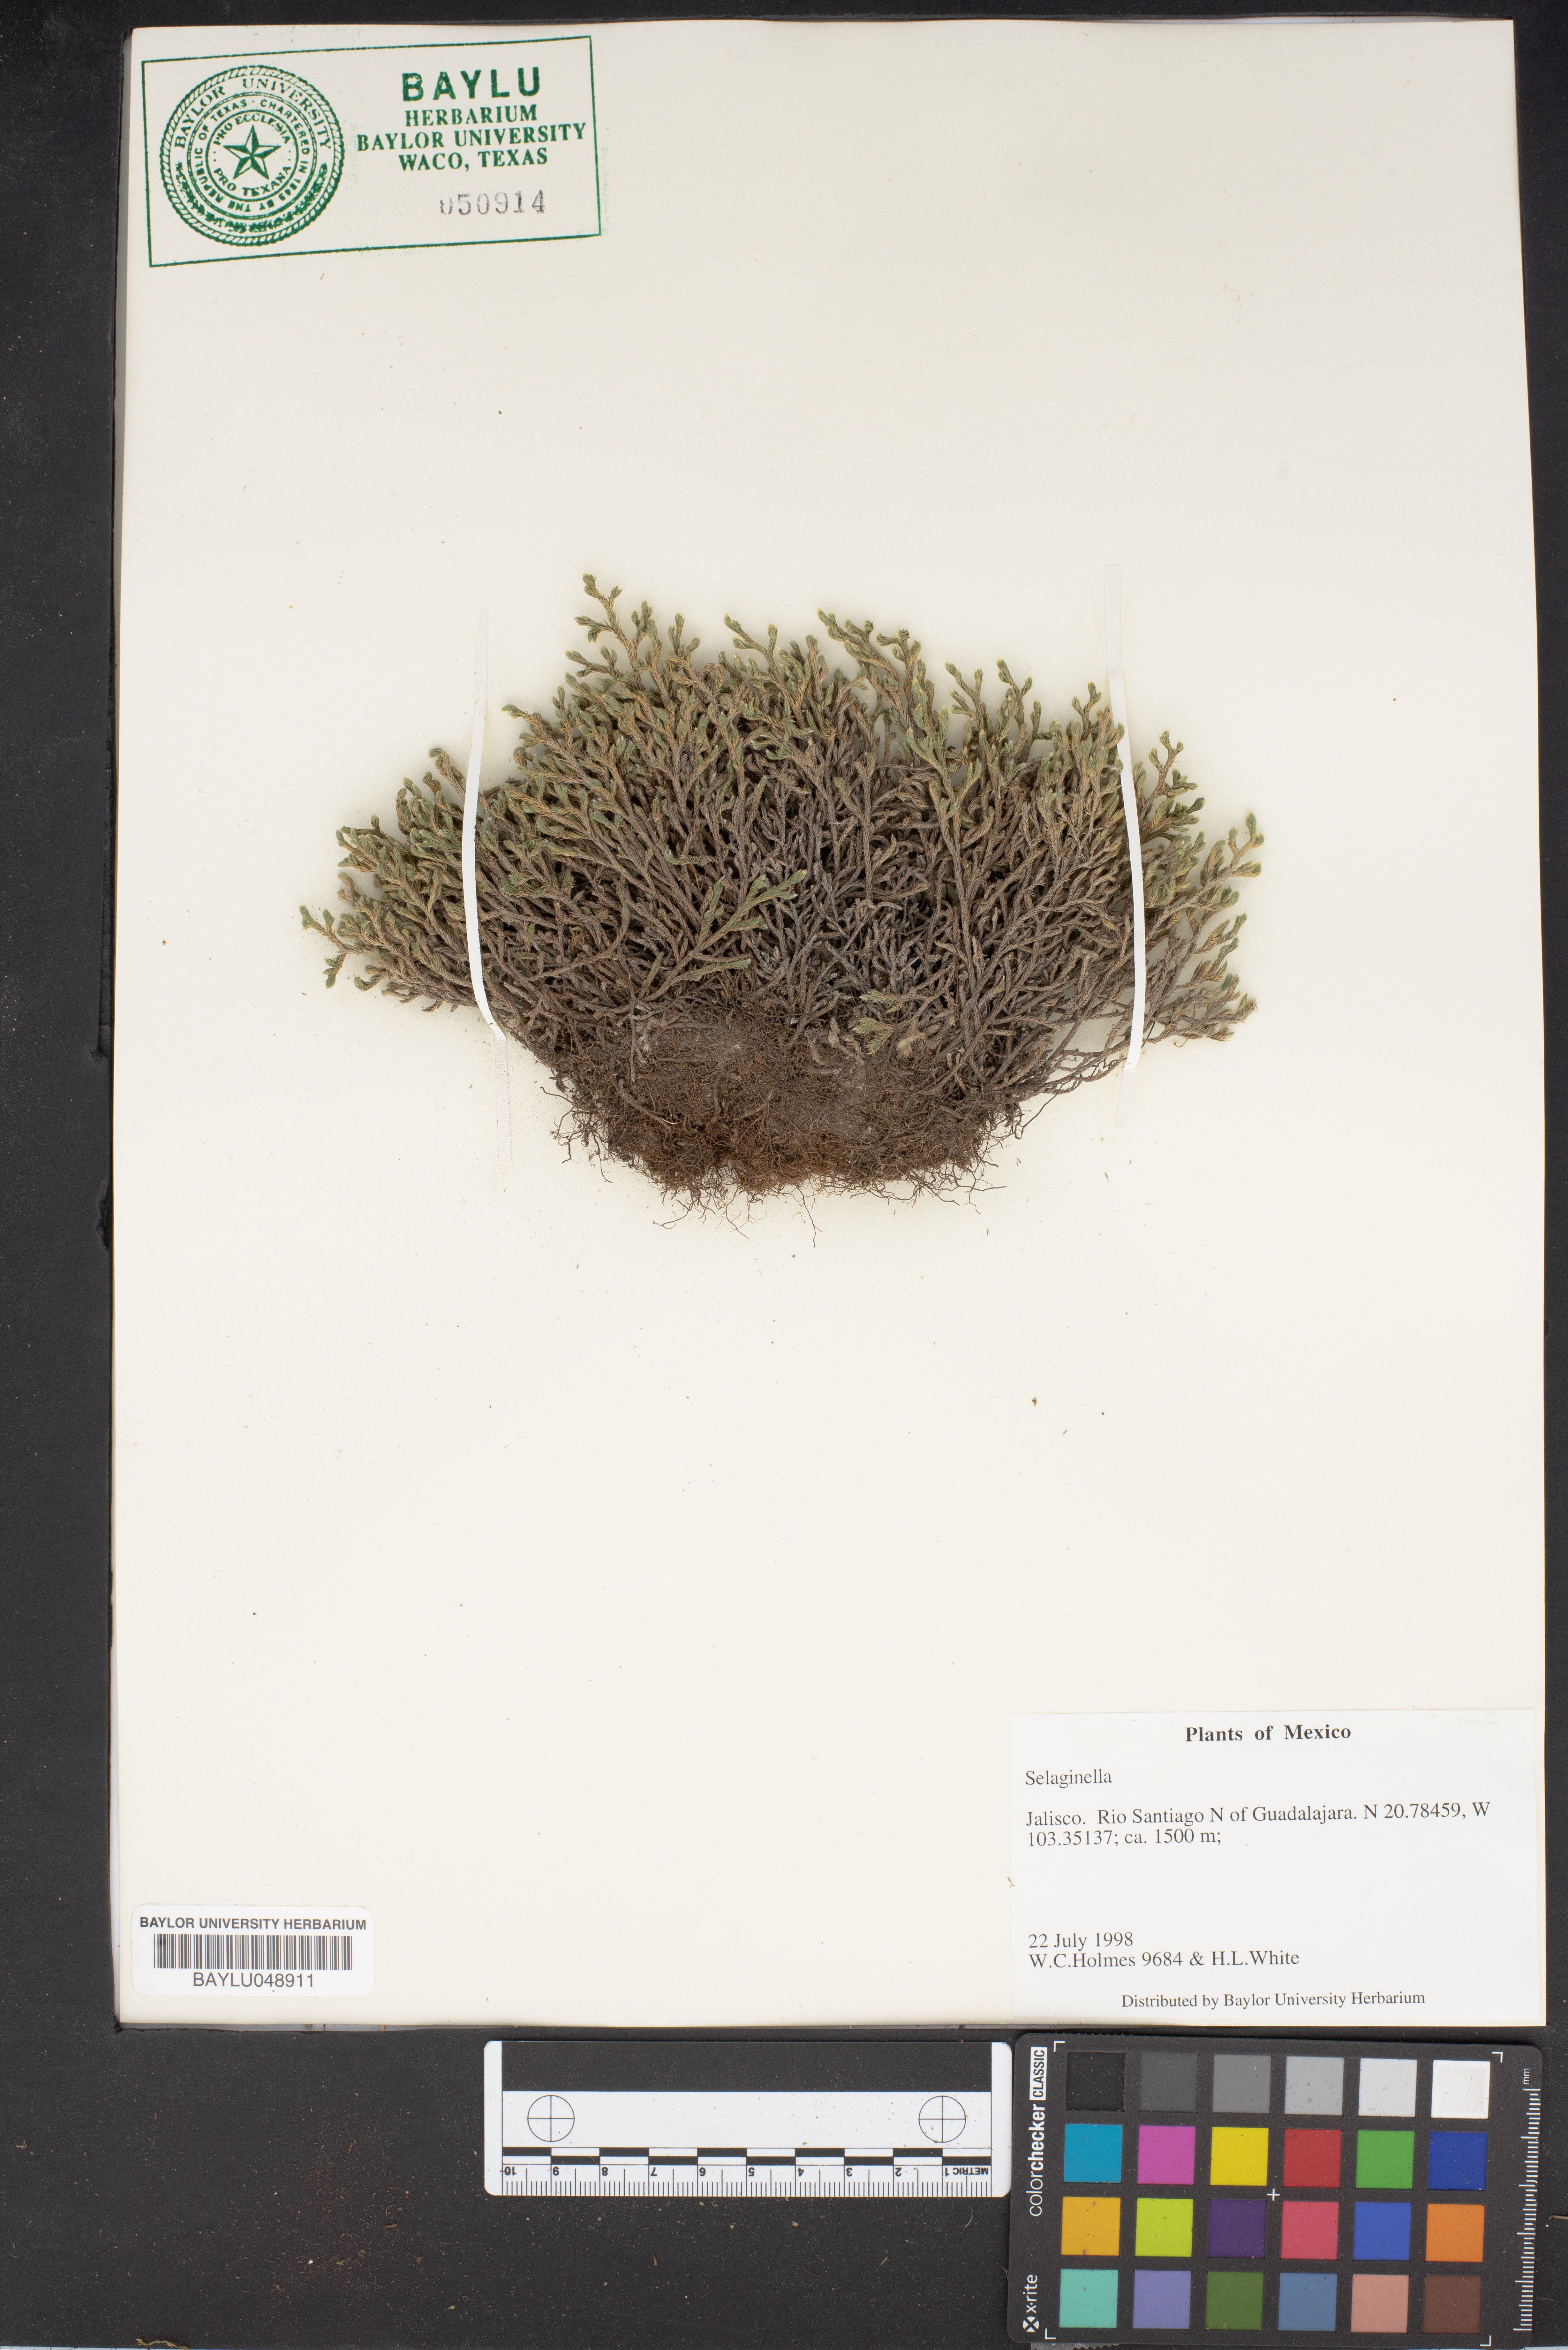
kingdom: Plantae
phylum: Tracheophyta
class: Lycopodiopsida
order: Selaginellales
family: Selaginellaceae
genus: Selaginella
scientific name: Selaginella
